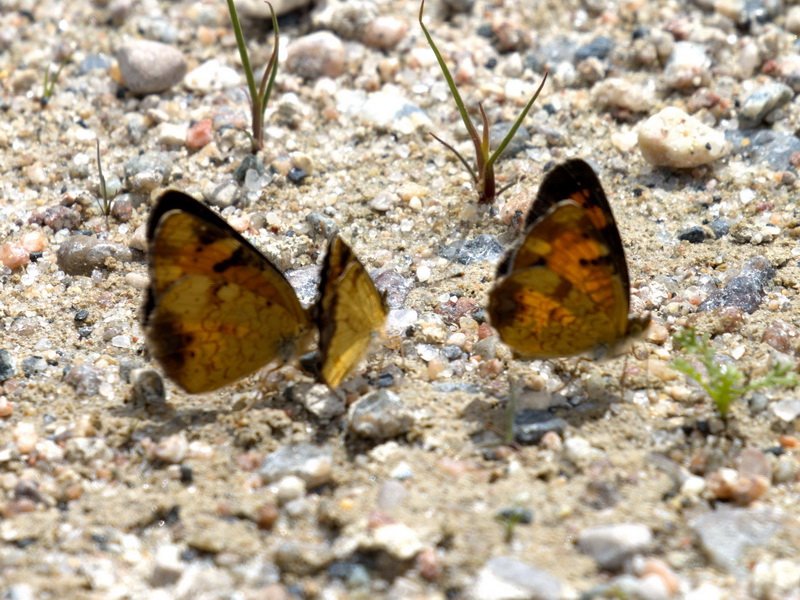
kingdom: Animalia
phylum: Arthropoda
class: Insecta
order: Lepidoptera
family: Nymphalidae
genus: Phyciodes
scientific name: Phyciodes tharos
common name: Northern Crescent
